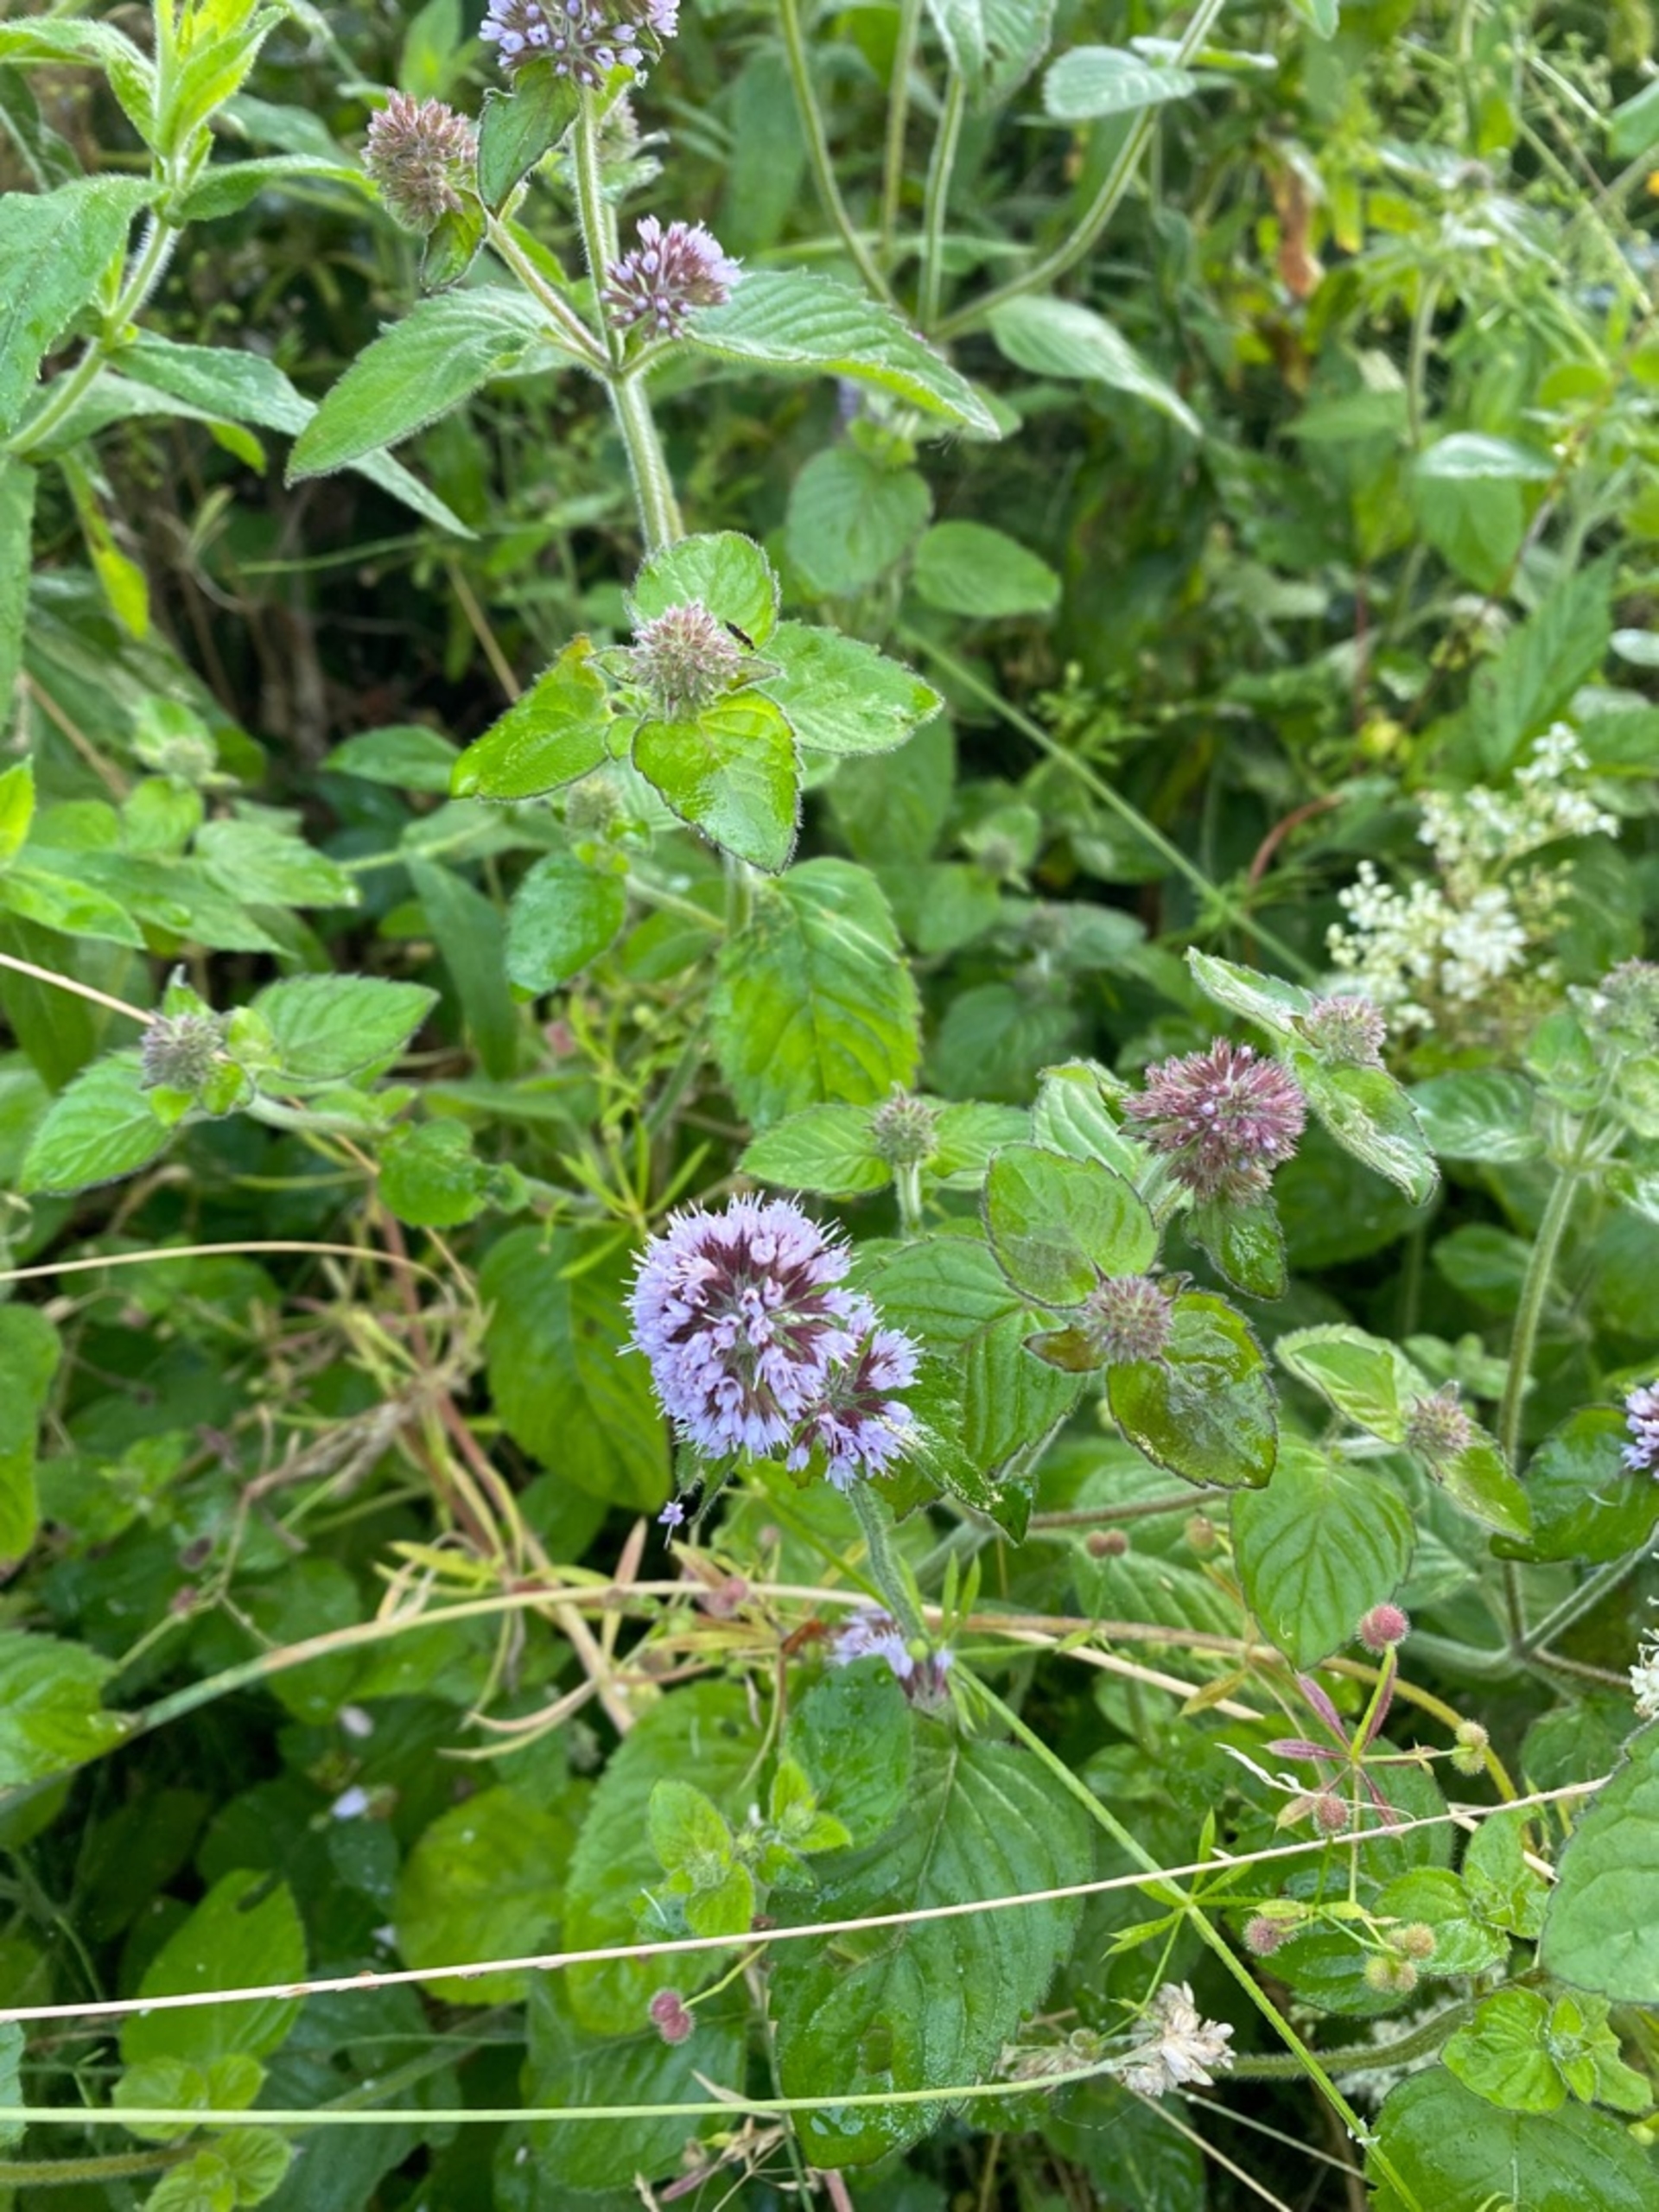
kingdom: Plantae
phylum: Tracheophyta
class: Magnoliopsida
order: Lamiales
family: Lamiaceae
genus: Mentha
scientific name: Mentha aquatica
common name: Vand-mynte
